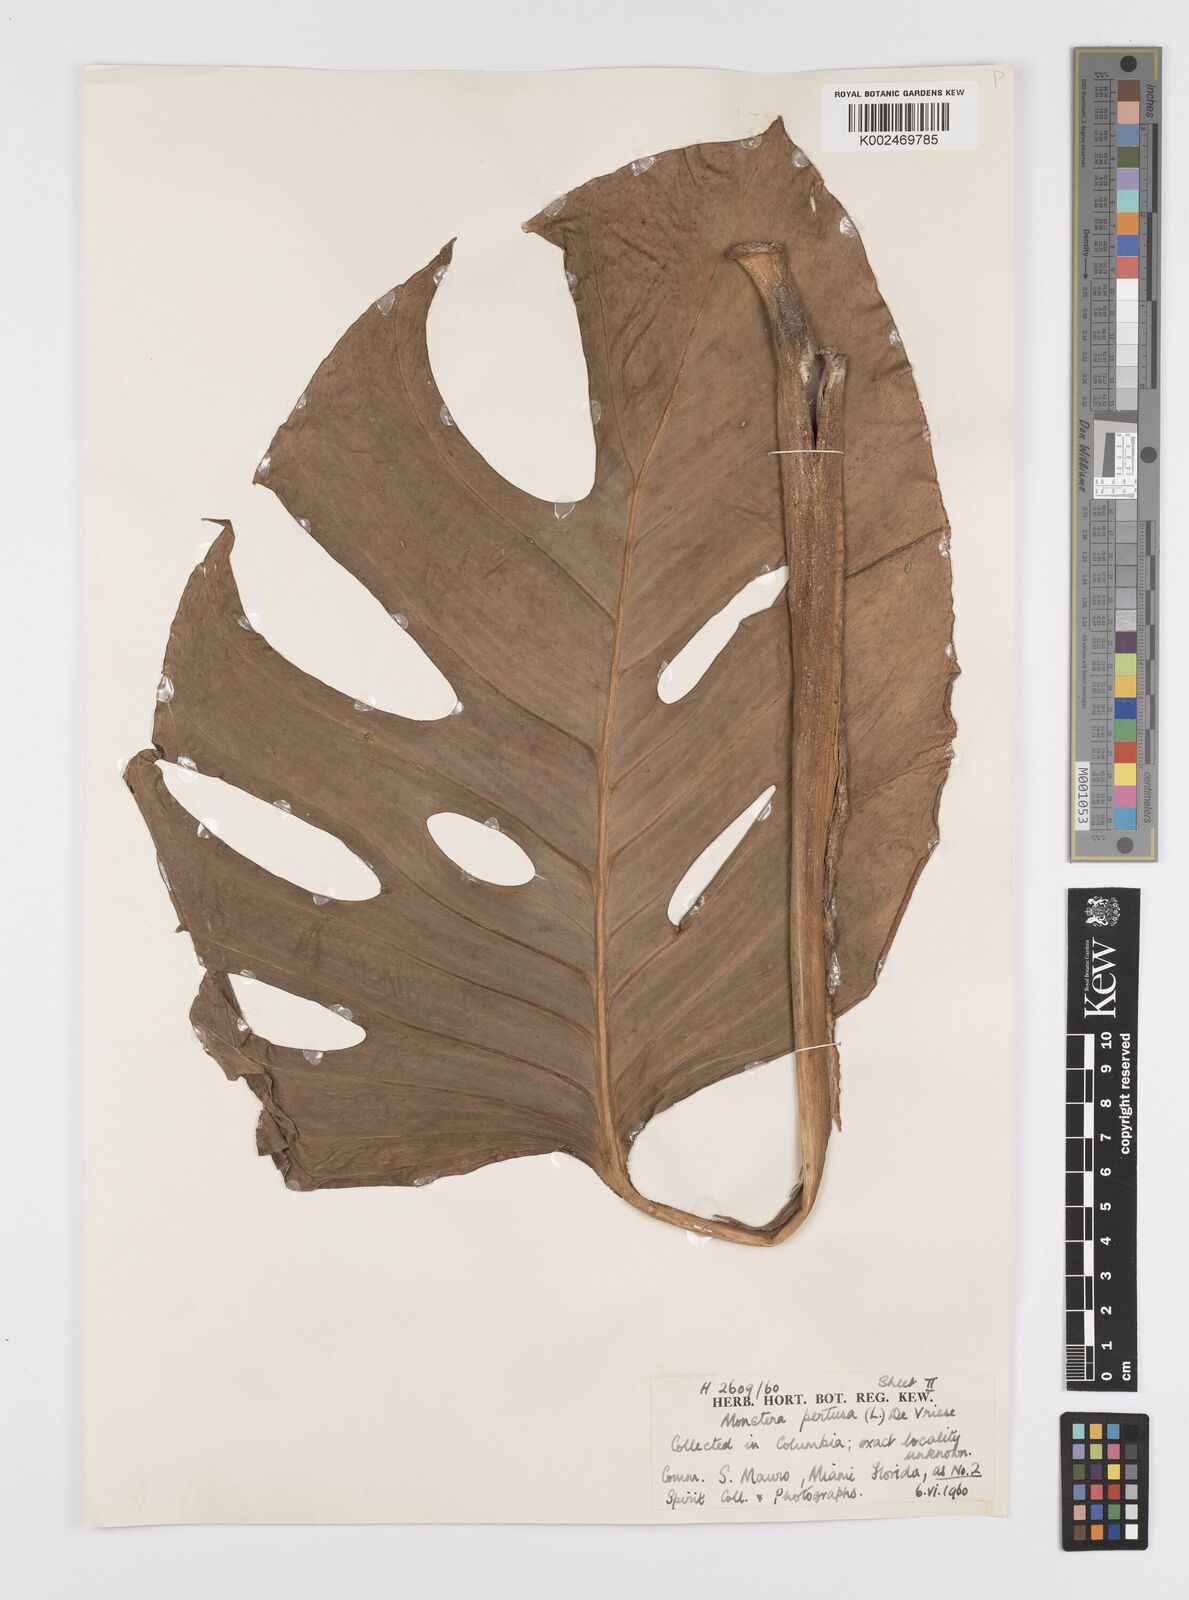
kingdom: Plantae
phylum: Tracheophyta
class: Liliopsida
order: Alismatales
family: Araceae
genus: Monstera
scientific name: Monstera adansonii
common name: Tarovine
